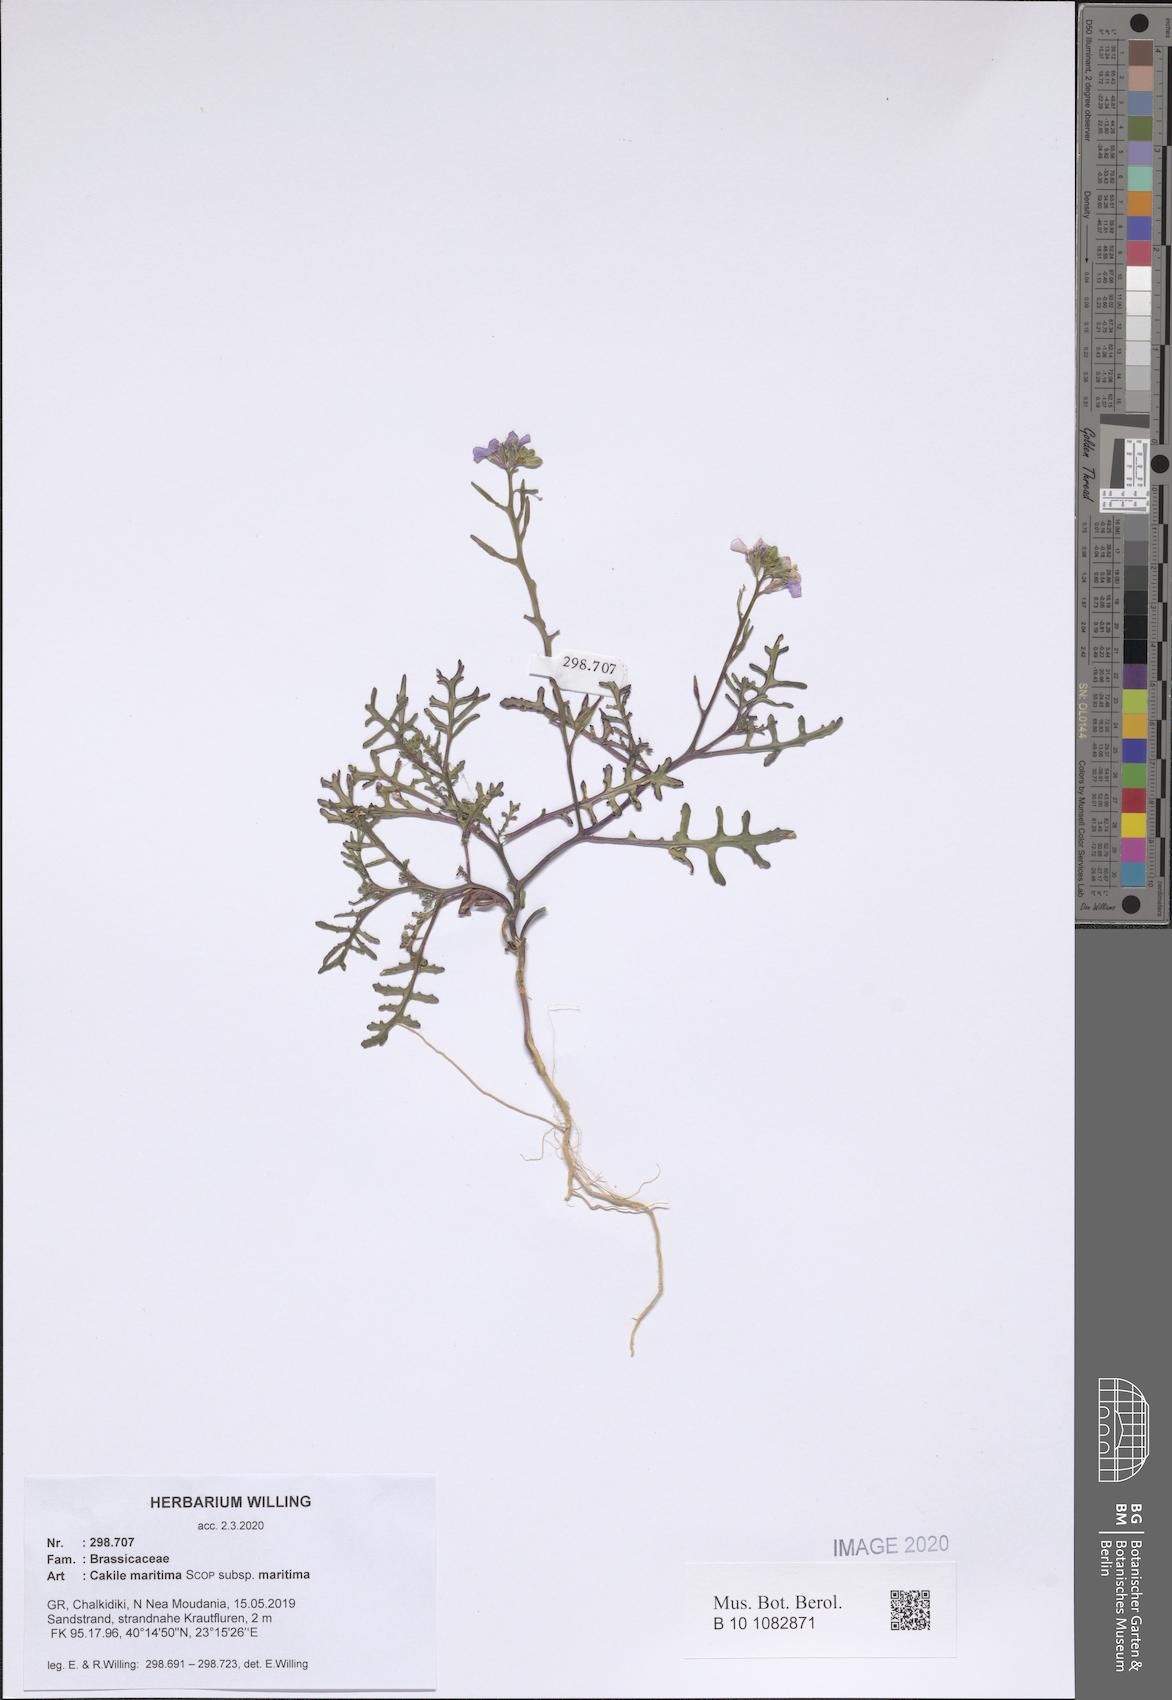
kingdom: Plantae
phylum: Tracheophyta
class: Magnoliopsida
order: Brassicales
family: Brassicaceae
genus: Cakile
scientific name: Cakile maritima
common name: Sea rocket
